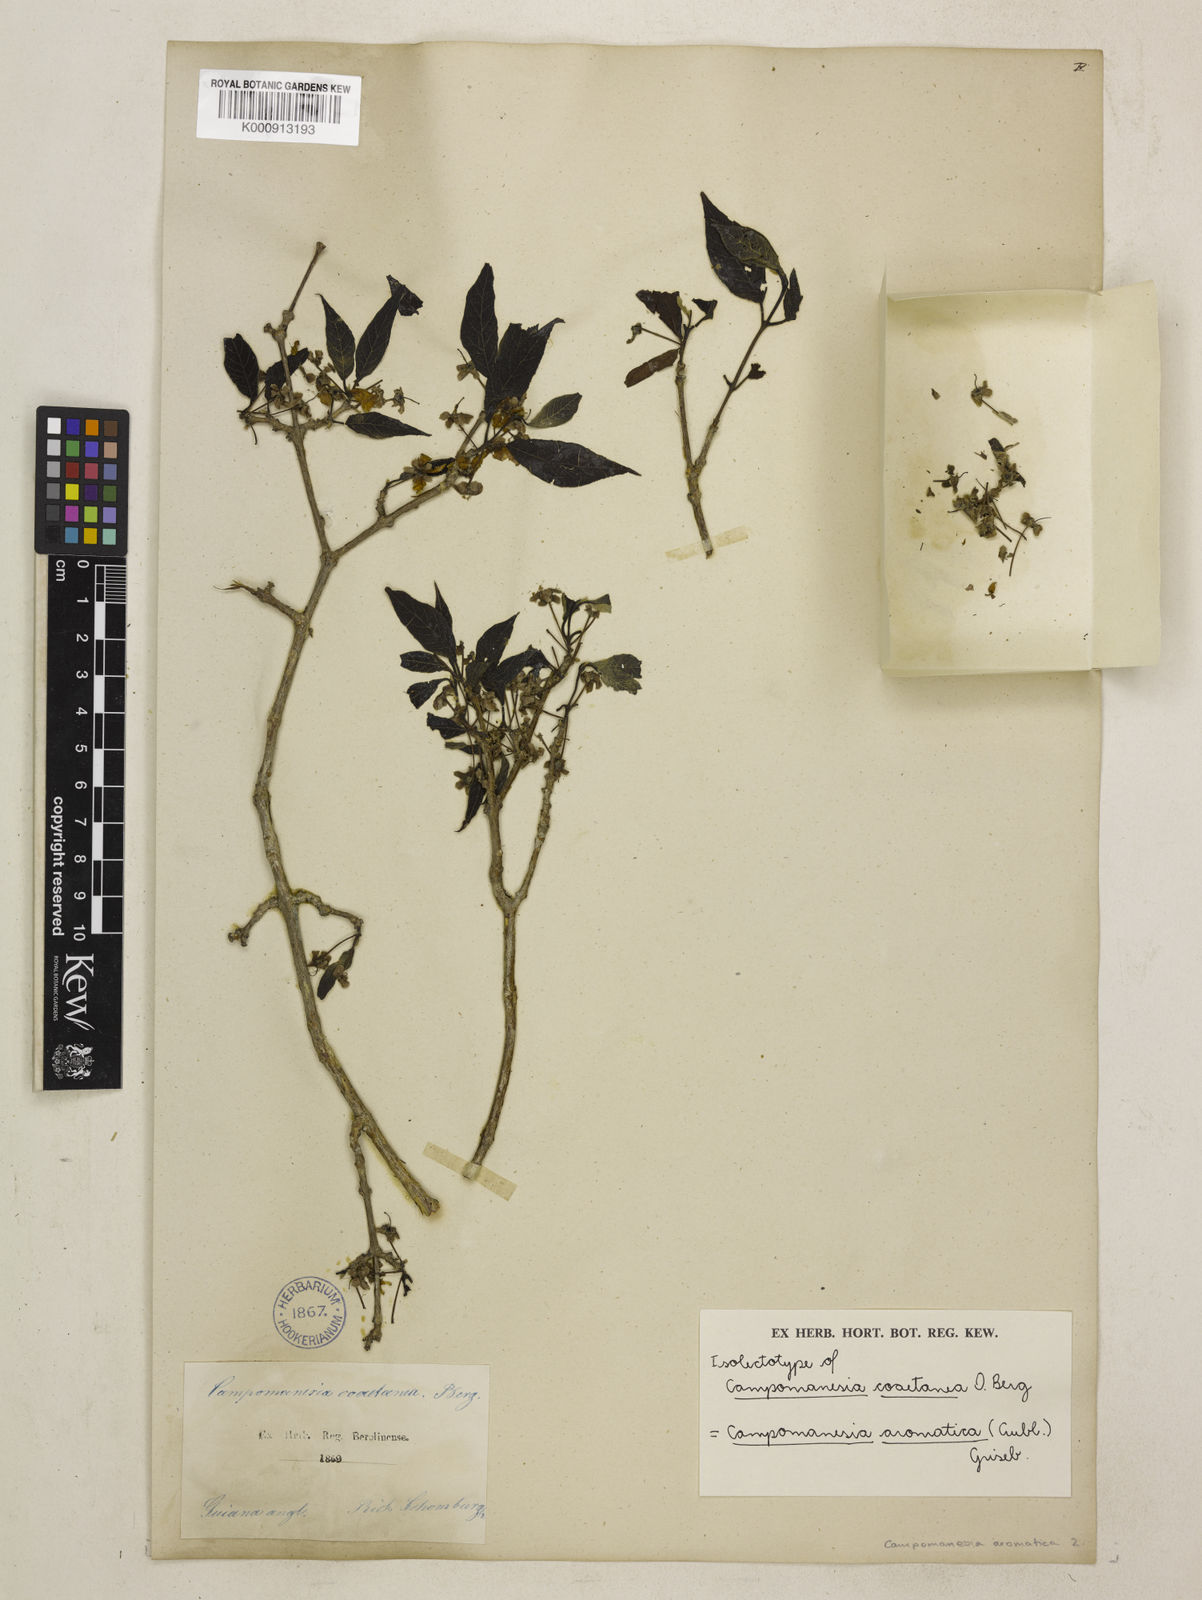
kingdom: Plantae
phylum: Tracheophyta
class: Magnoliopsida
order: Myrtales
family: Myrtaceae
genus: Campomanesia
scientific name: Campomanesia aromatica
